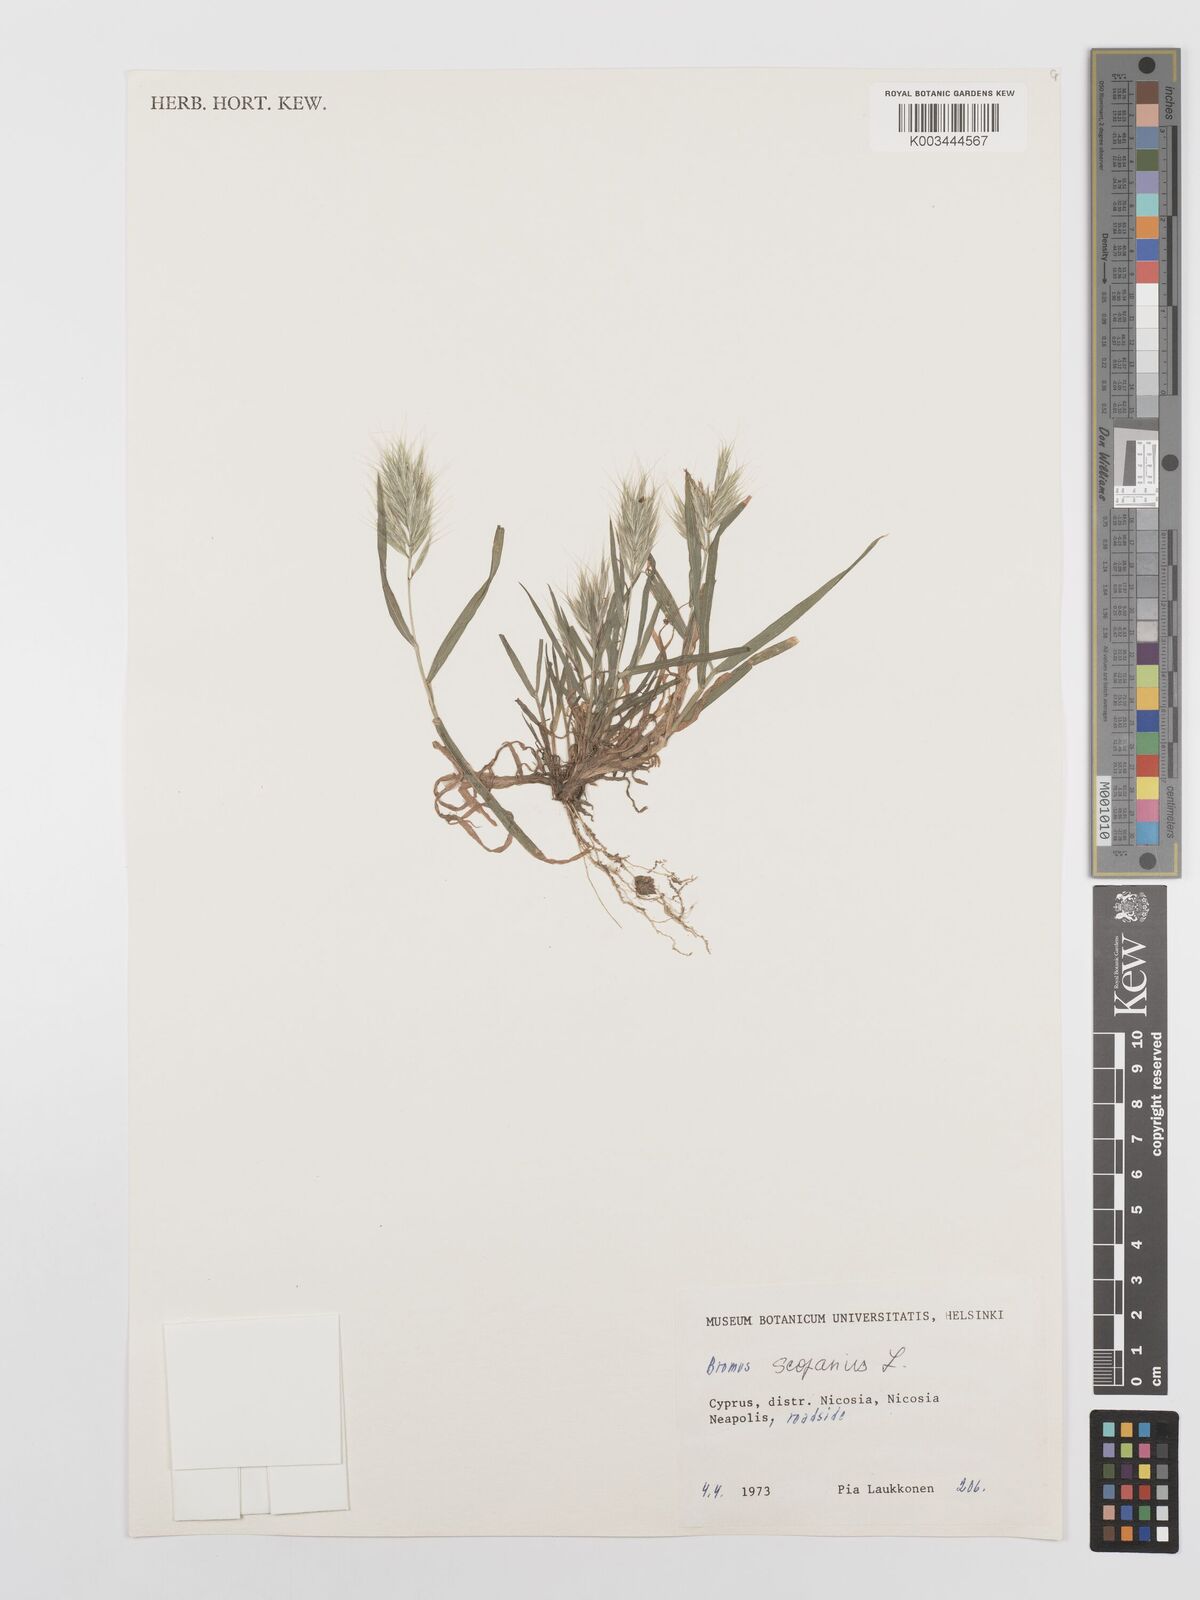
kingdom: Plantae
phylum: Tracheophyta
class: Liliopsida
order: Poales
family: Poaceae
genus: Bromus
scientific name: Bromus scoparius
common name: Broom brome
